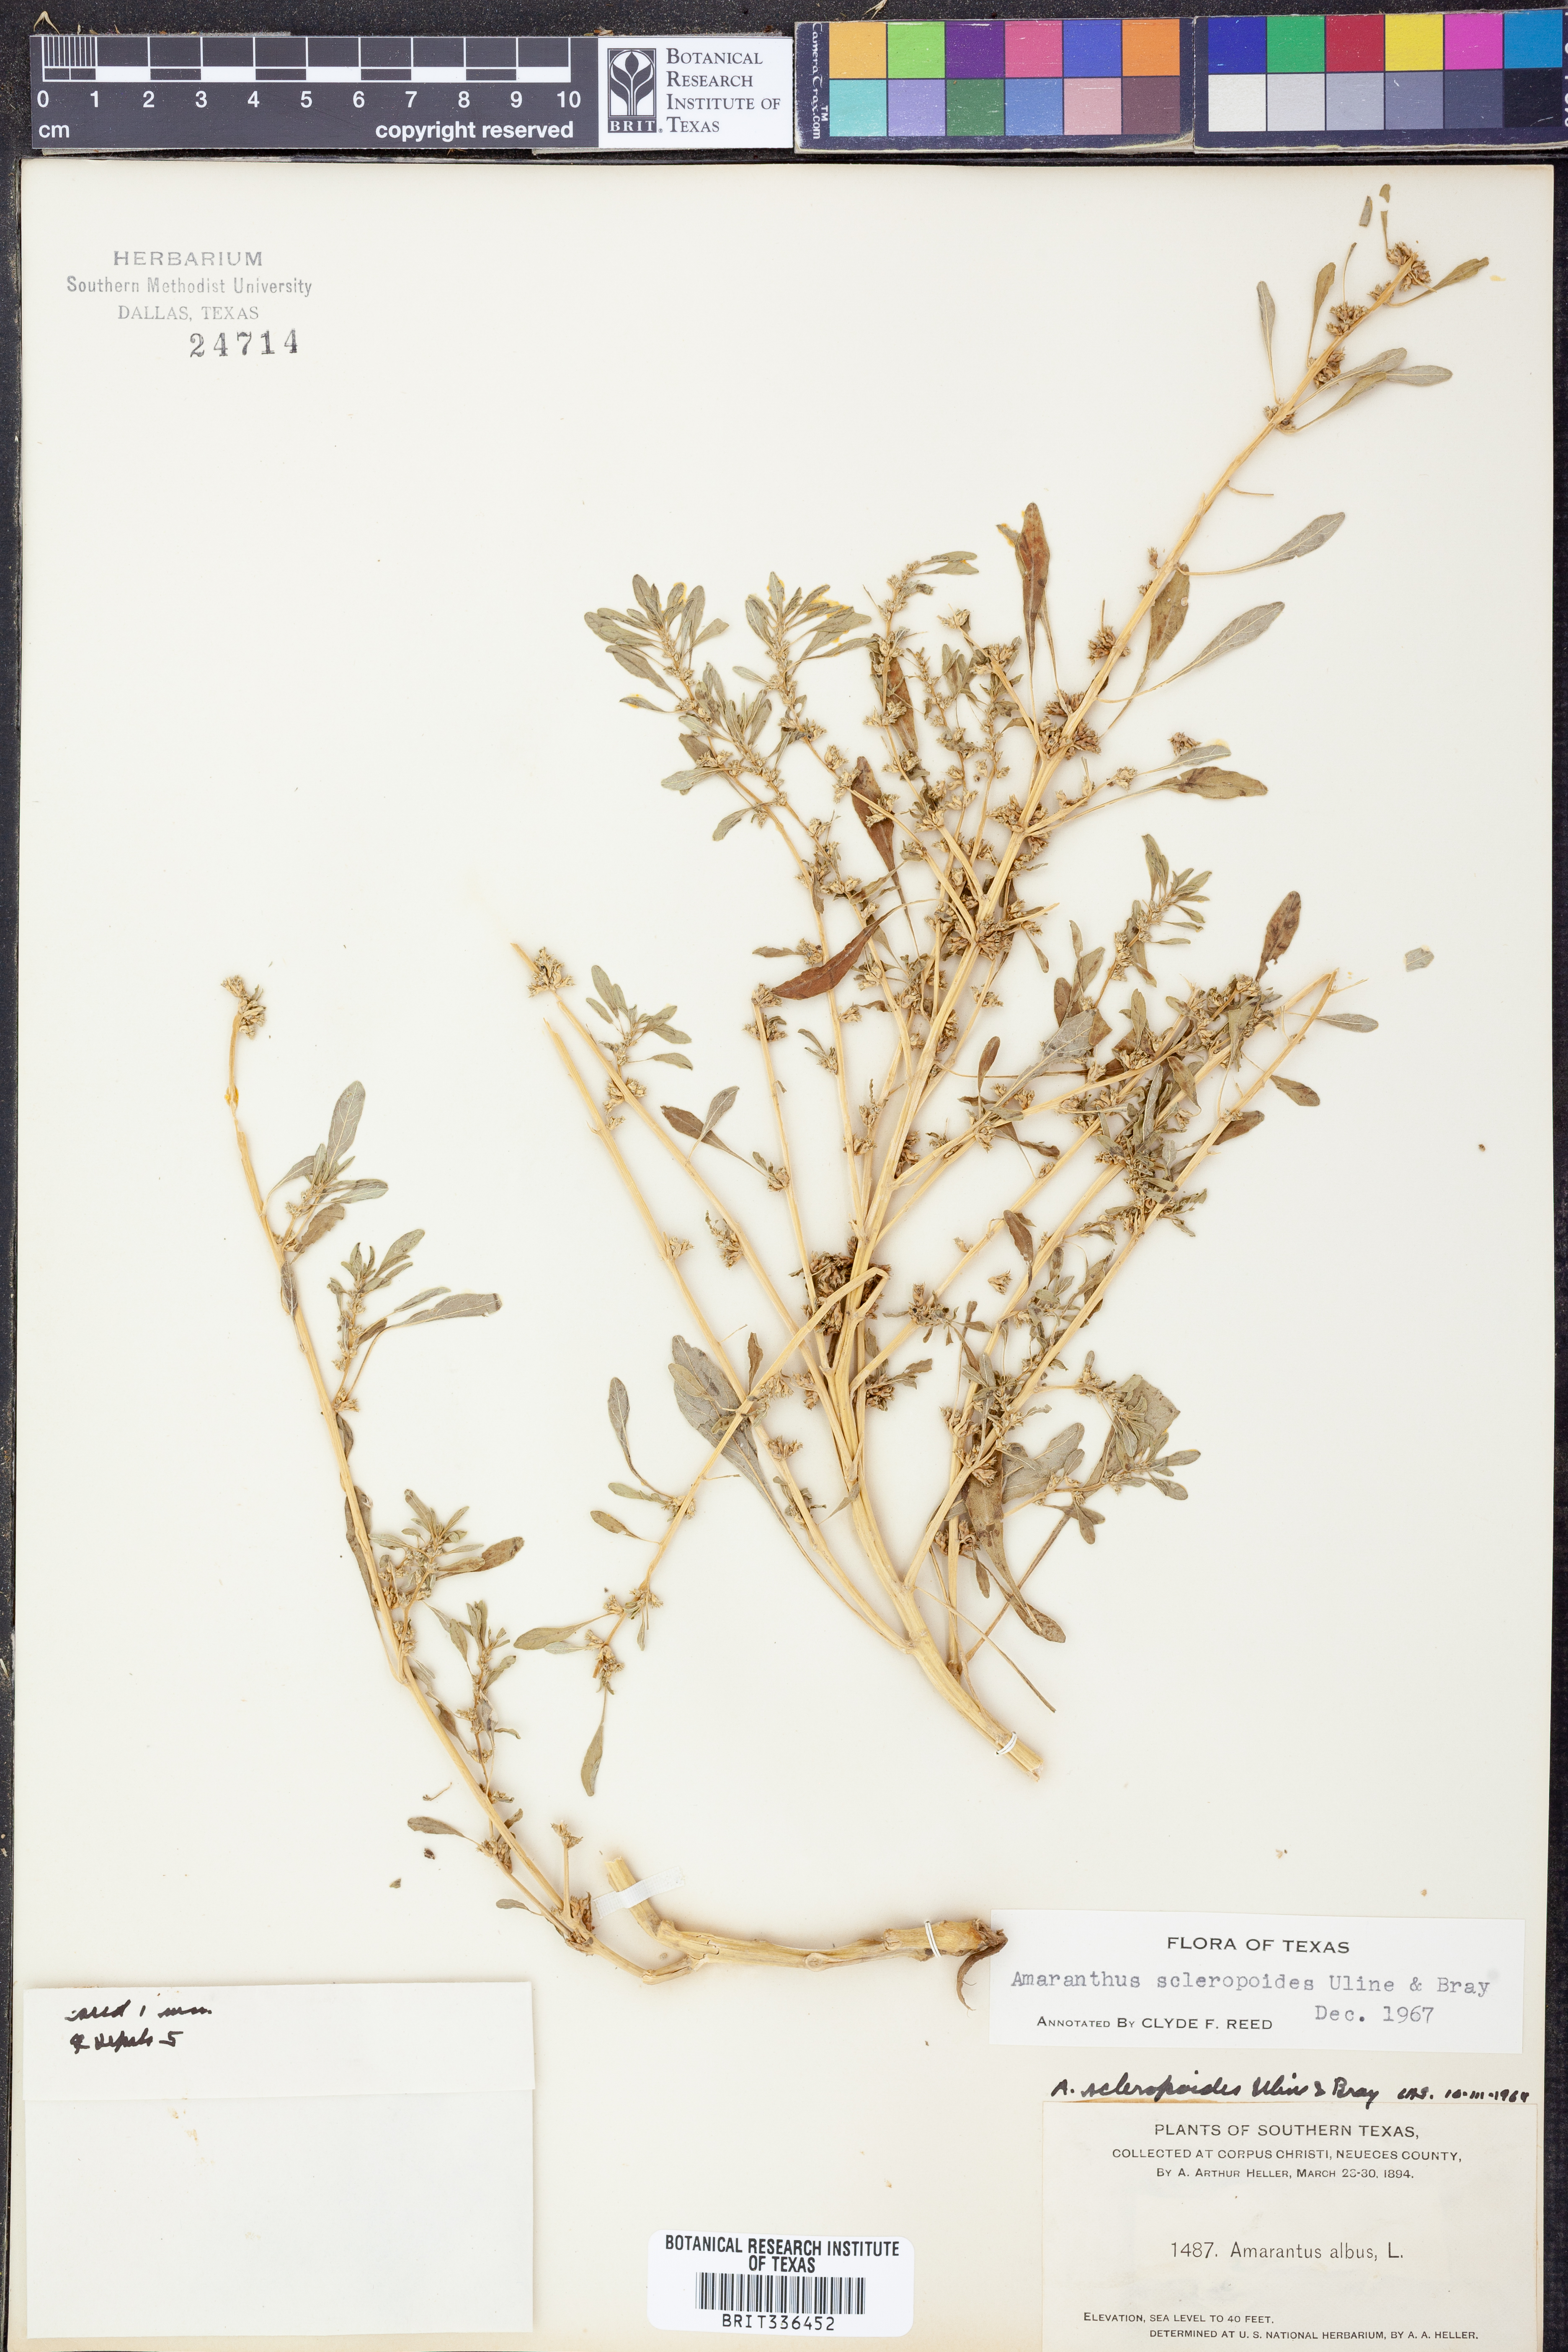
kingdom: Plantae
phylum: Tracheophyta
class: Magnoliopsida
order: Caryophyllales
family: Amaranthaceae
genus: Amaranthus
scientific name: Amaranthus scleropoides
